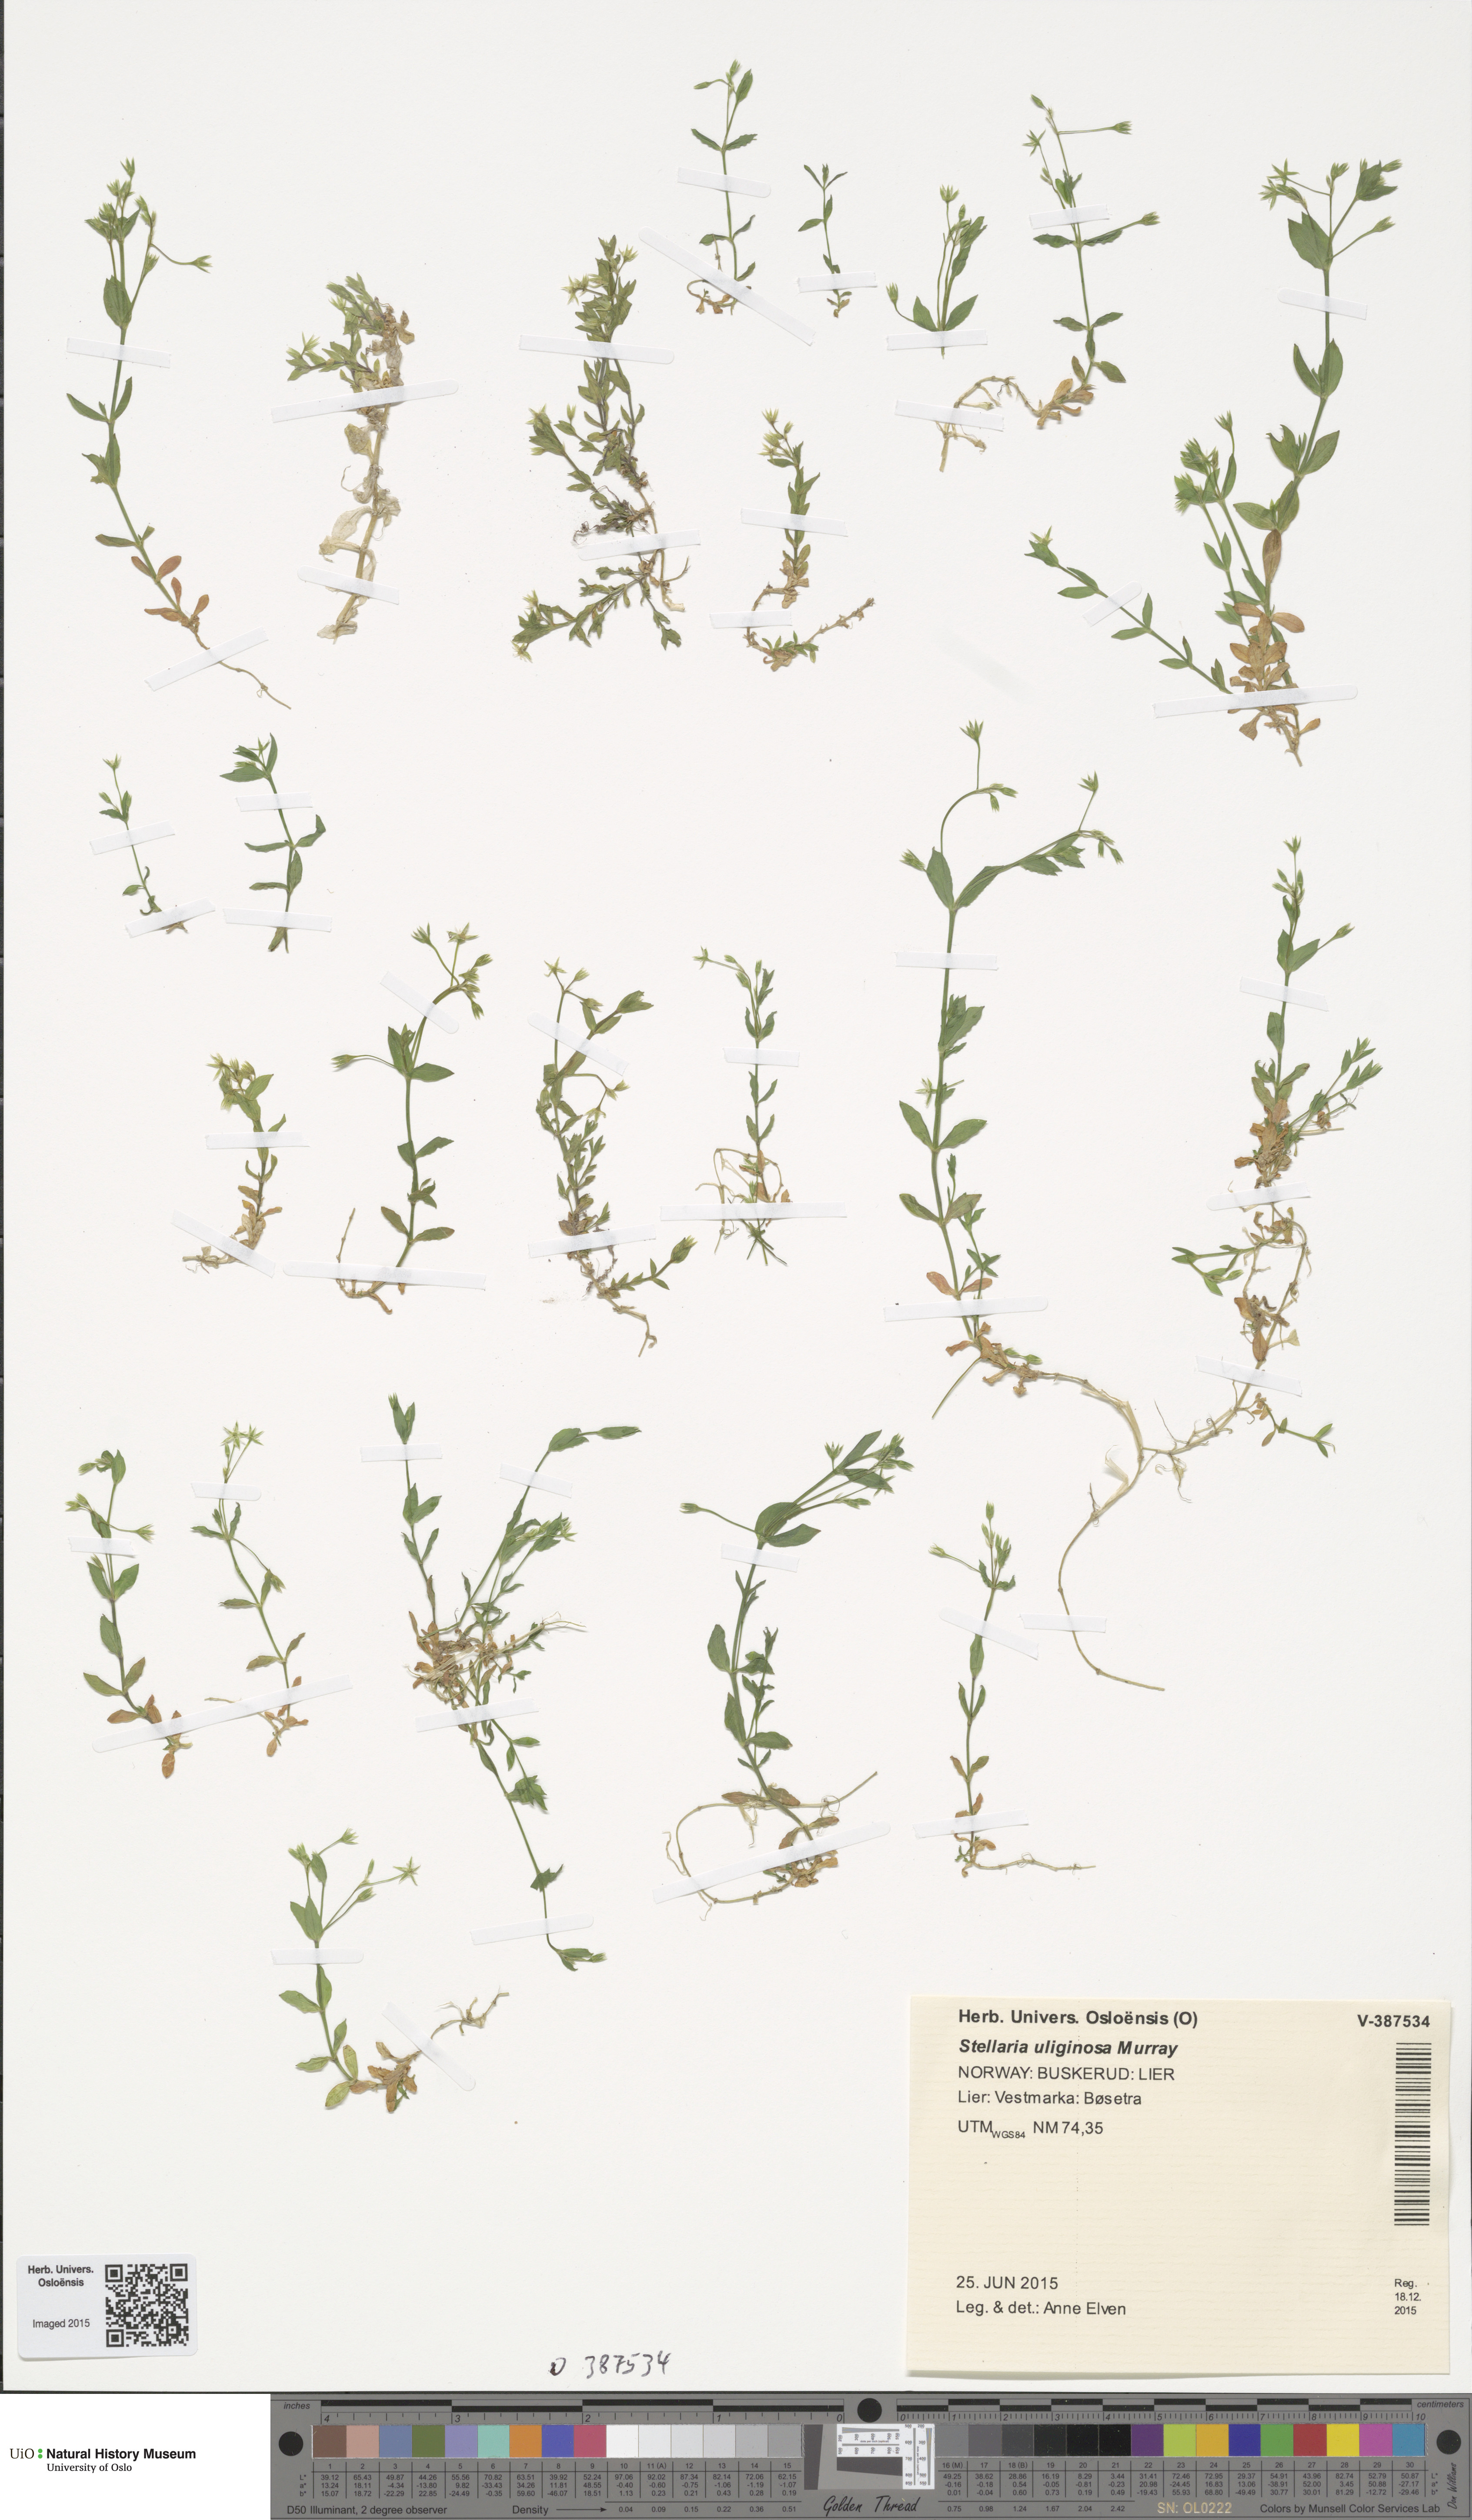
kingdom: Plantae
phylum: Tracheophyta
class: Magnoliopsida
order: Caryophyllales
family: Caryophyllaceae
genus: Stellaria
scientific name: Stellaria alsine
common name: Bog stitchwort
